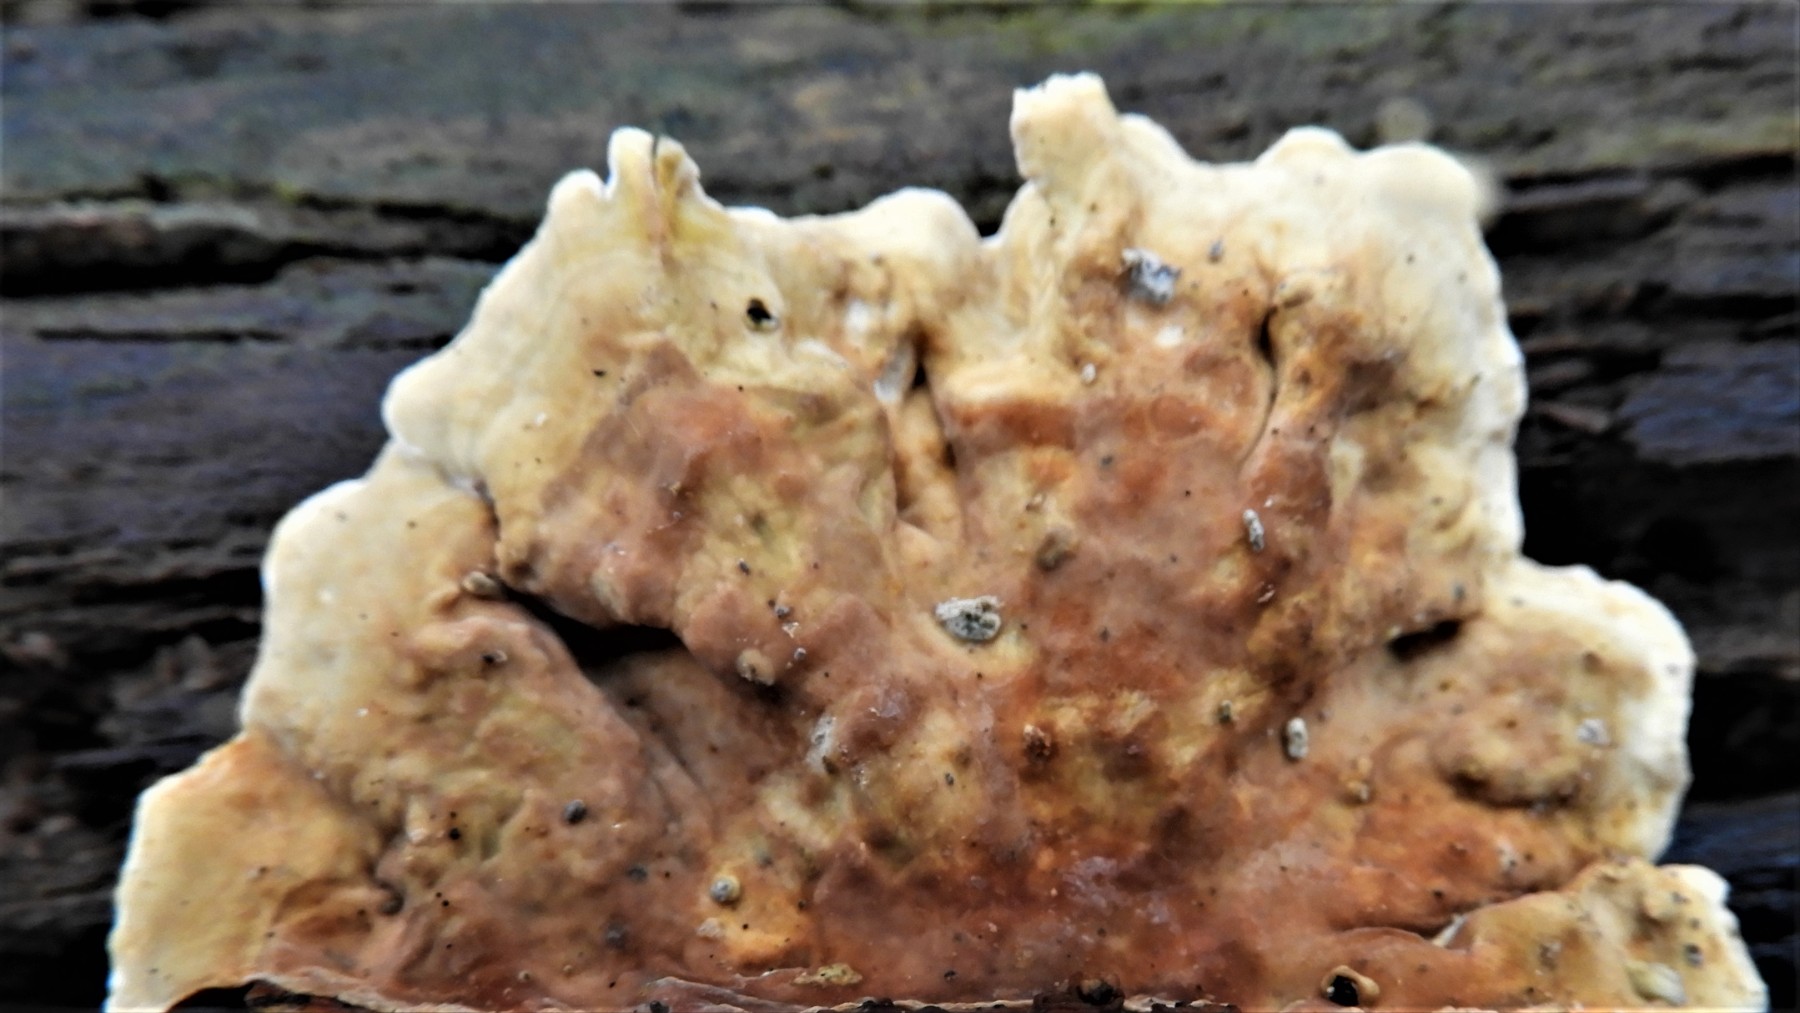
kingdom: Fungi
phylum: Basidiomycota
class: Agaricomycetes
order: Russulales
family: Stereaceae
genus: Stereum
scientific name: Stereum subtomentosum
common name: smuk lædersvamp
